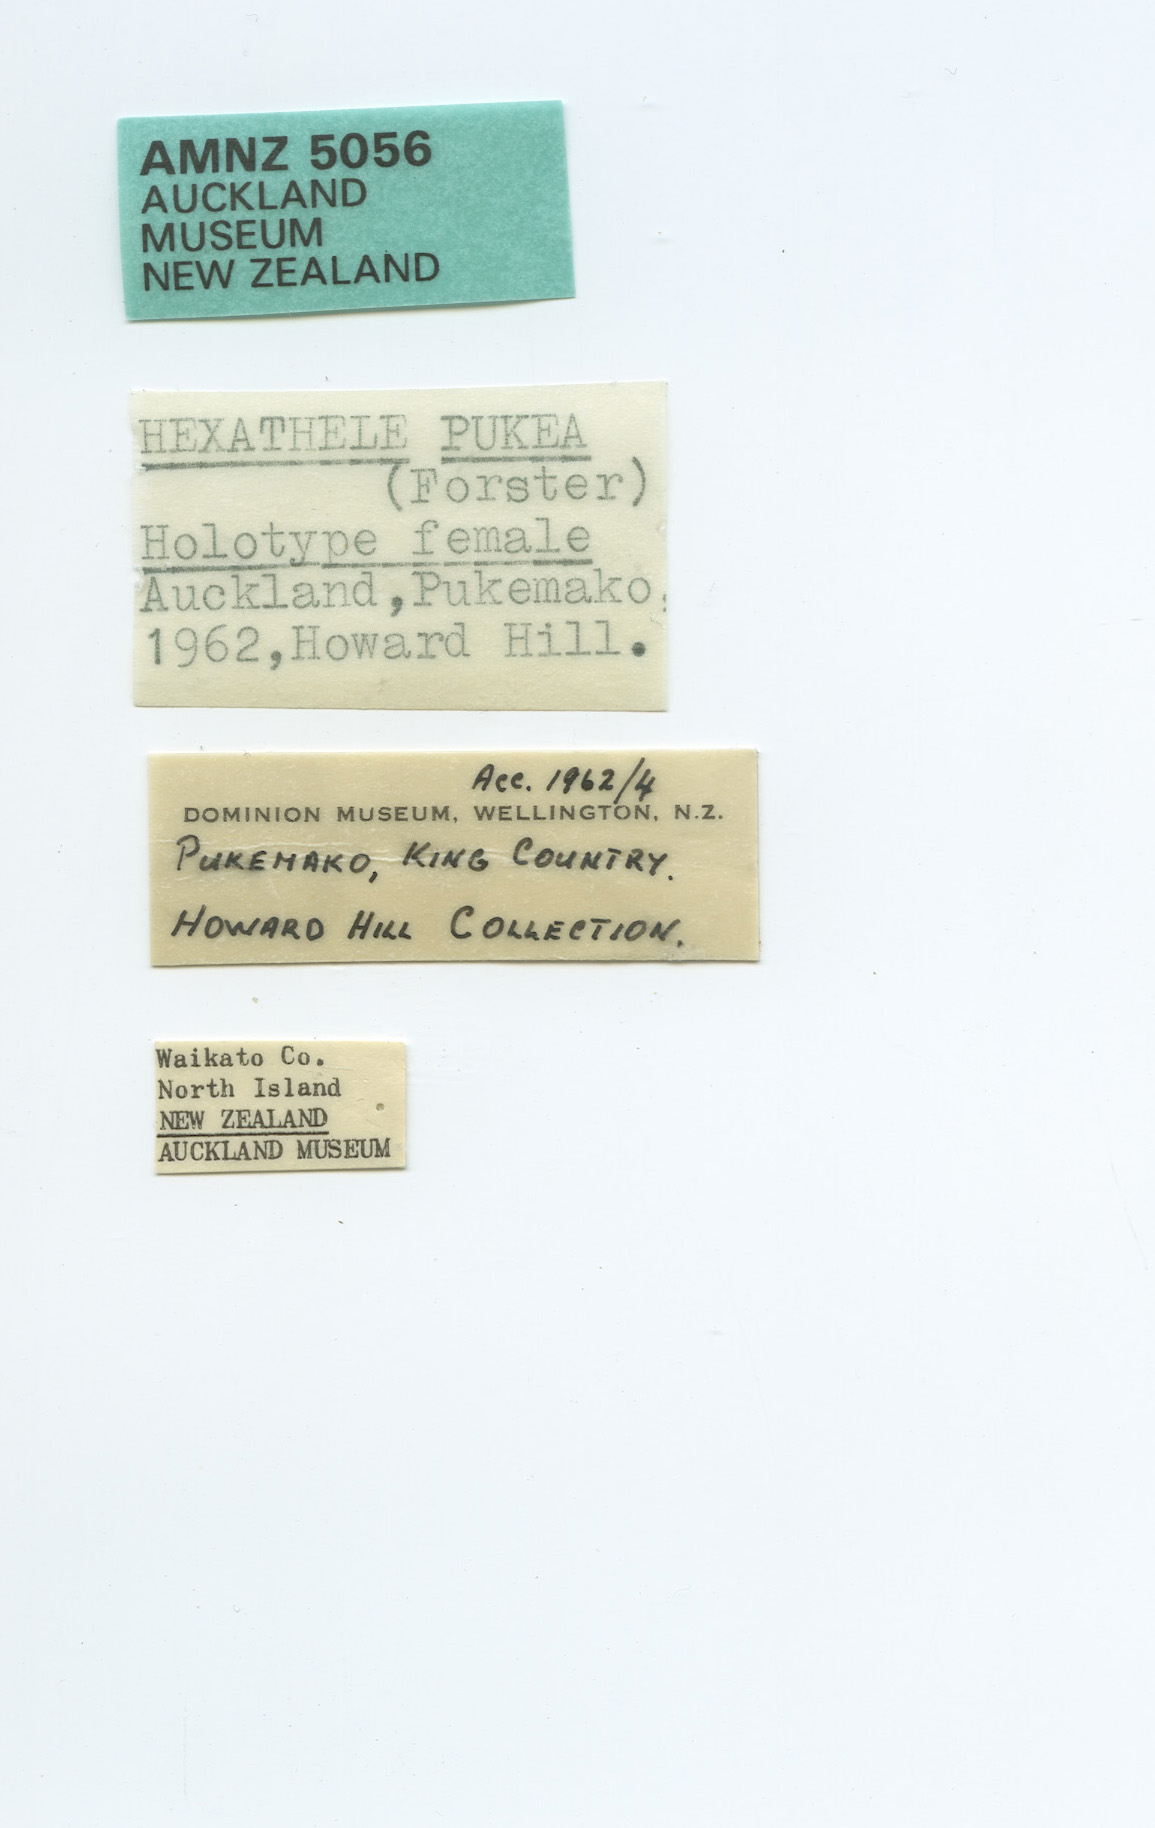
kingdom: Animalia
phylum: Arthropoda
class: Arachnida
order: Araneae
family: Hexathelidae
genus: Hexathele
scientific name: Hexathele pukea
